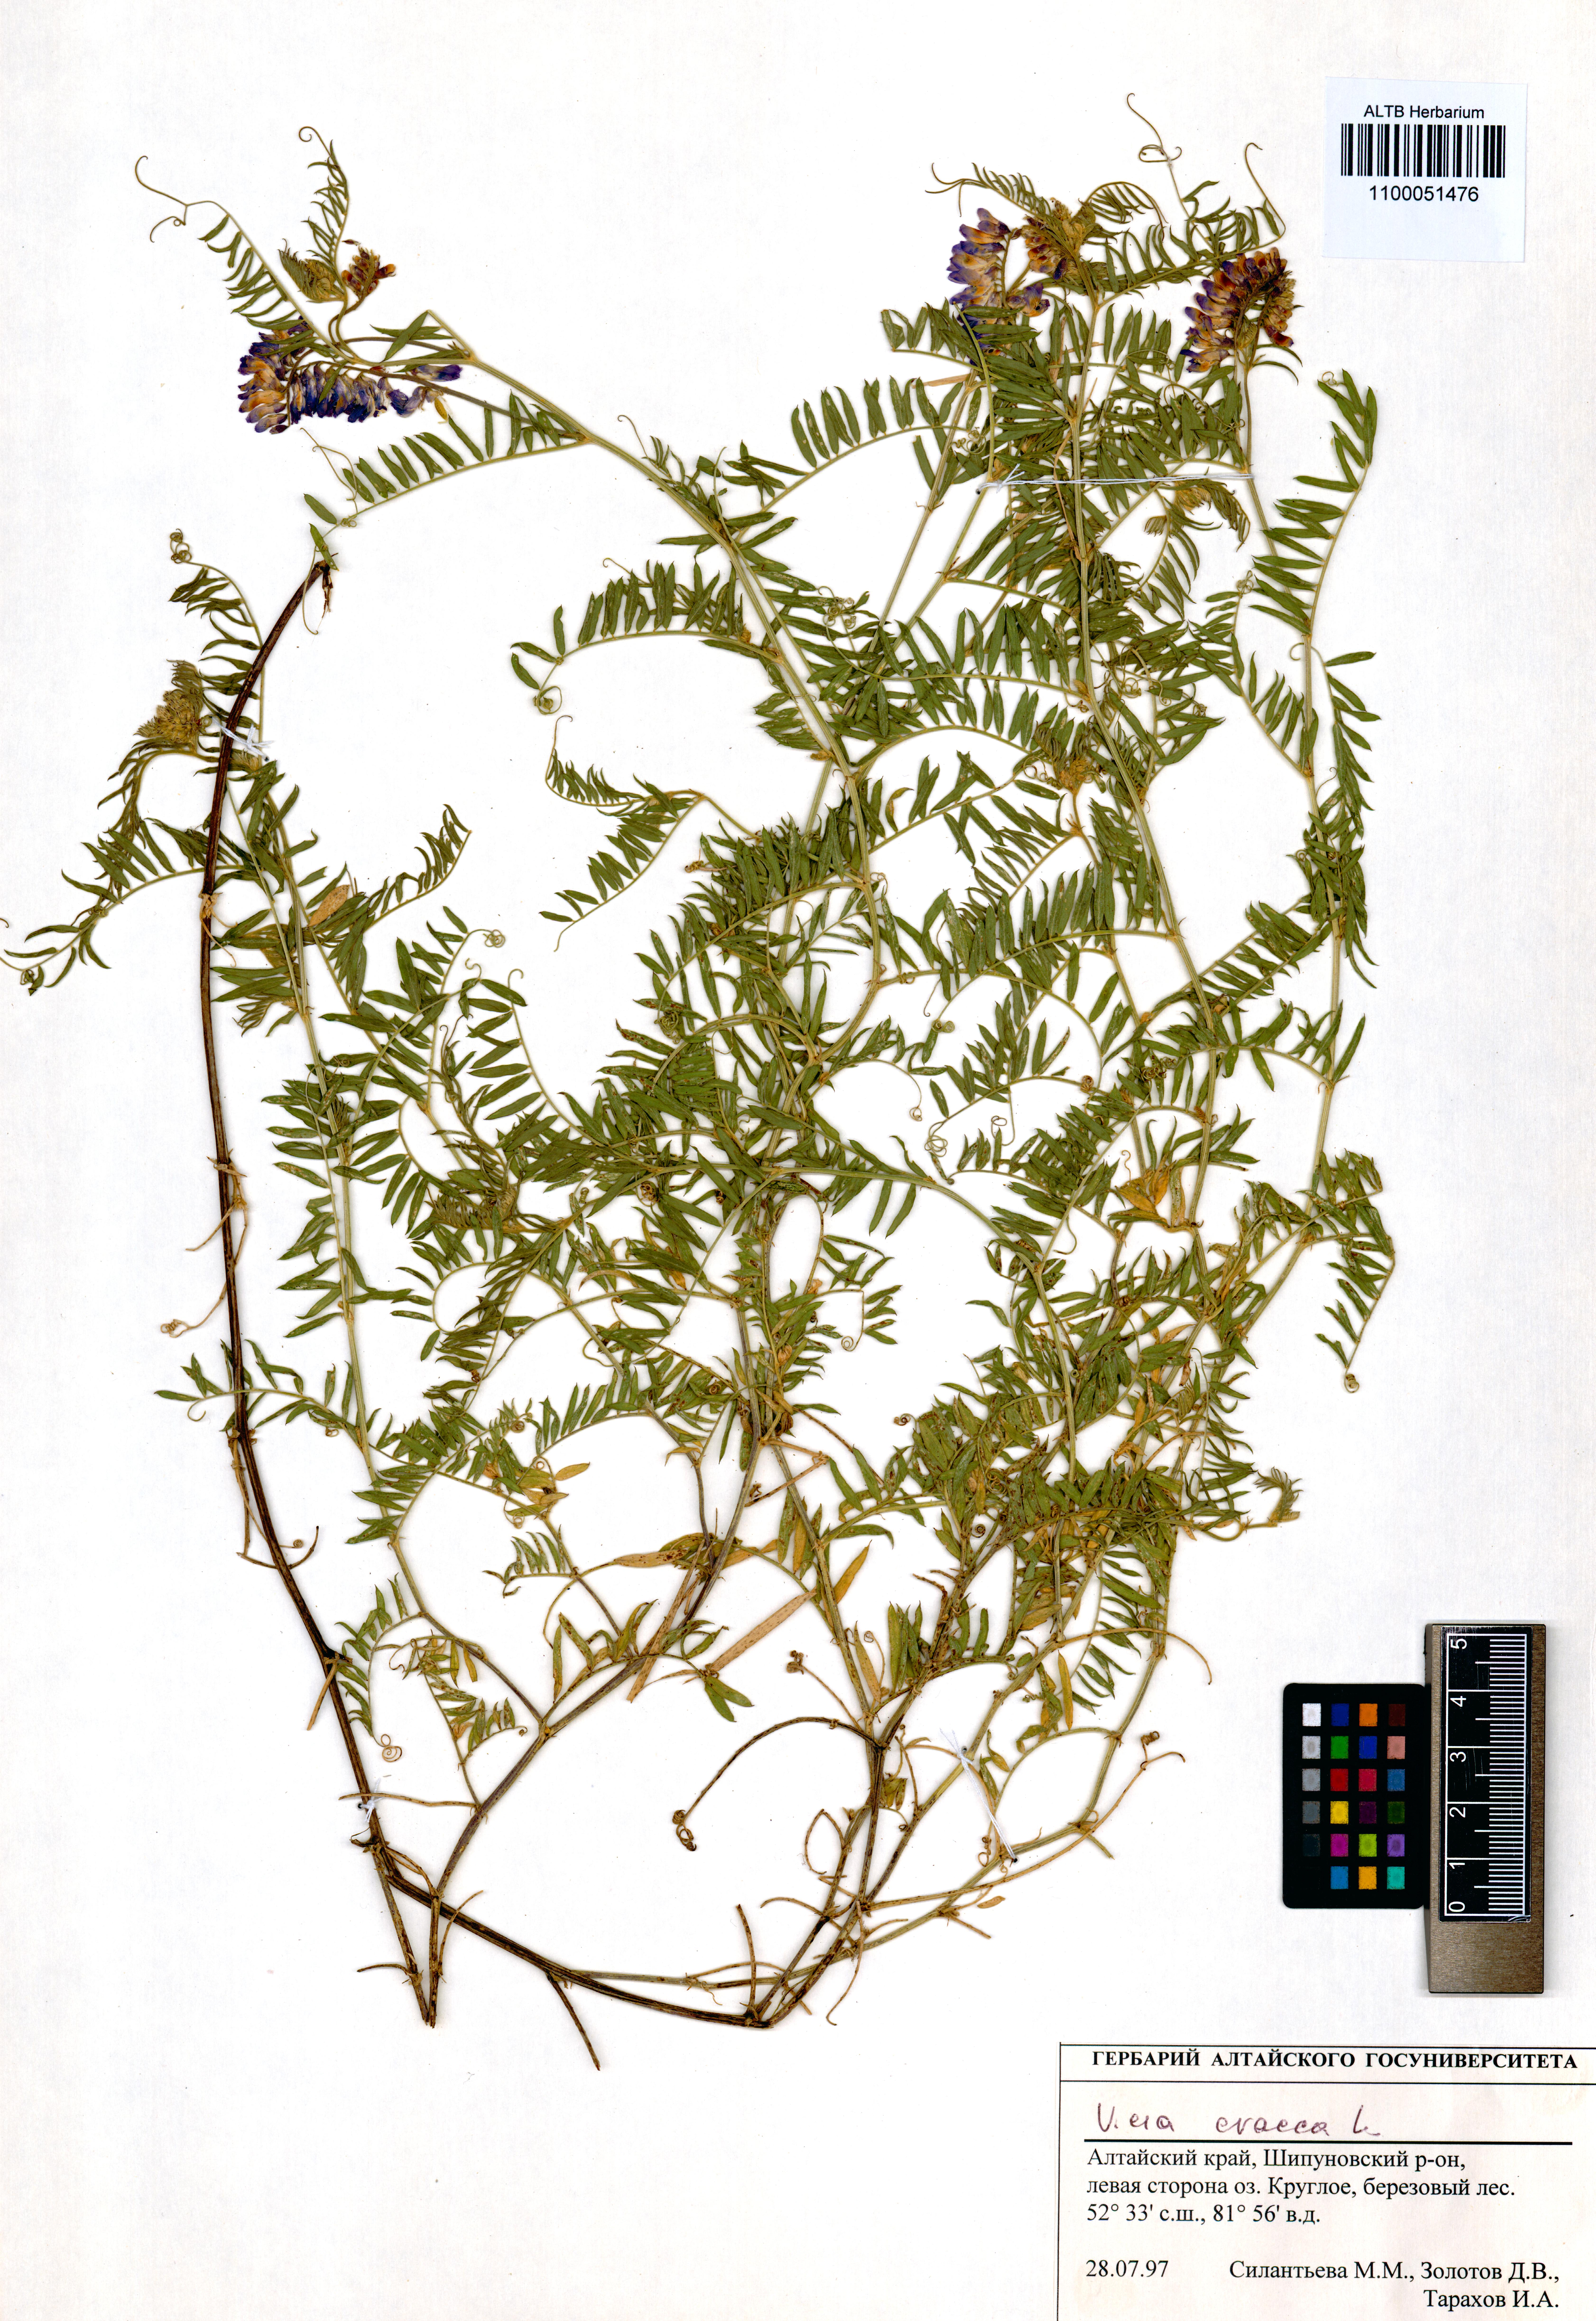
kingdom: Plantae
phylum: Tracheophyta
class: Magnoliopsida
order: Fabales
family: Fabaceae
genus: Vicia
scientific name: Vicia cracca
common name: Bird vetch
